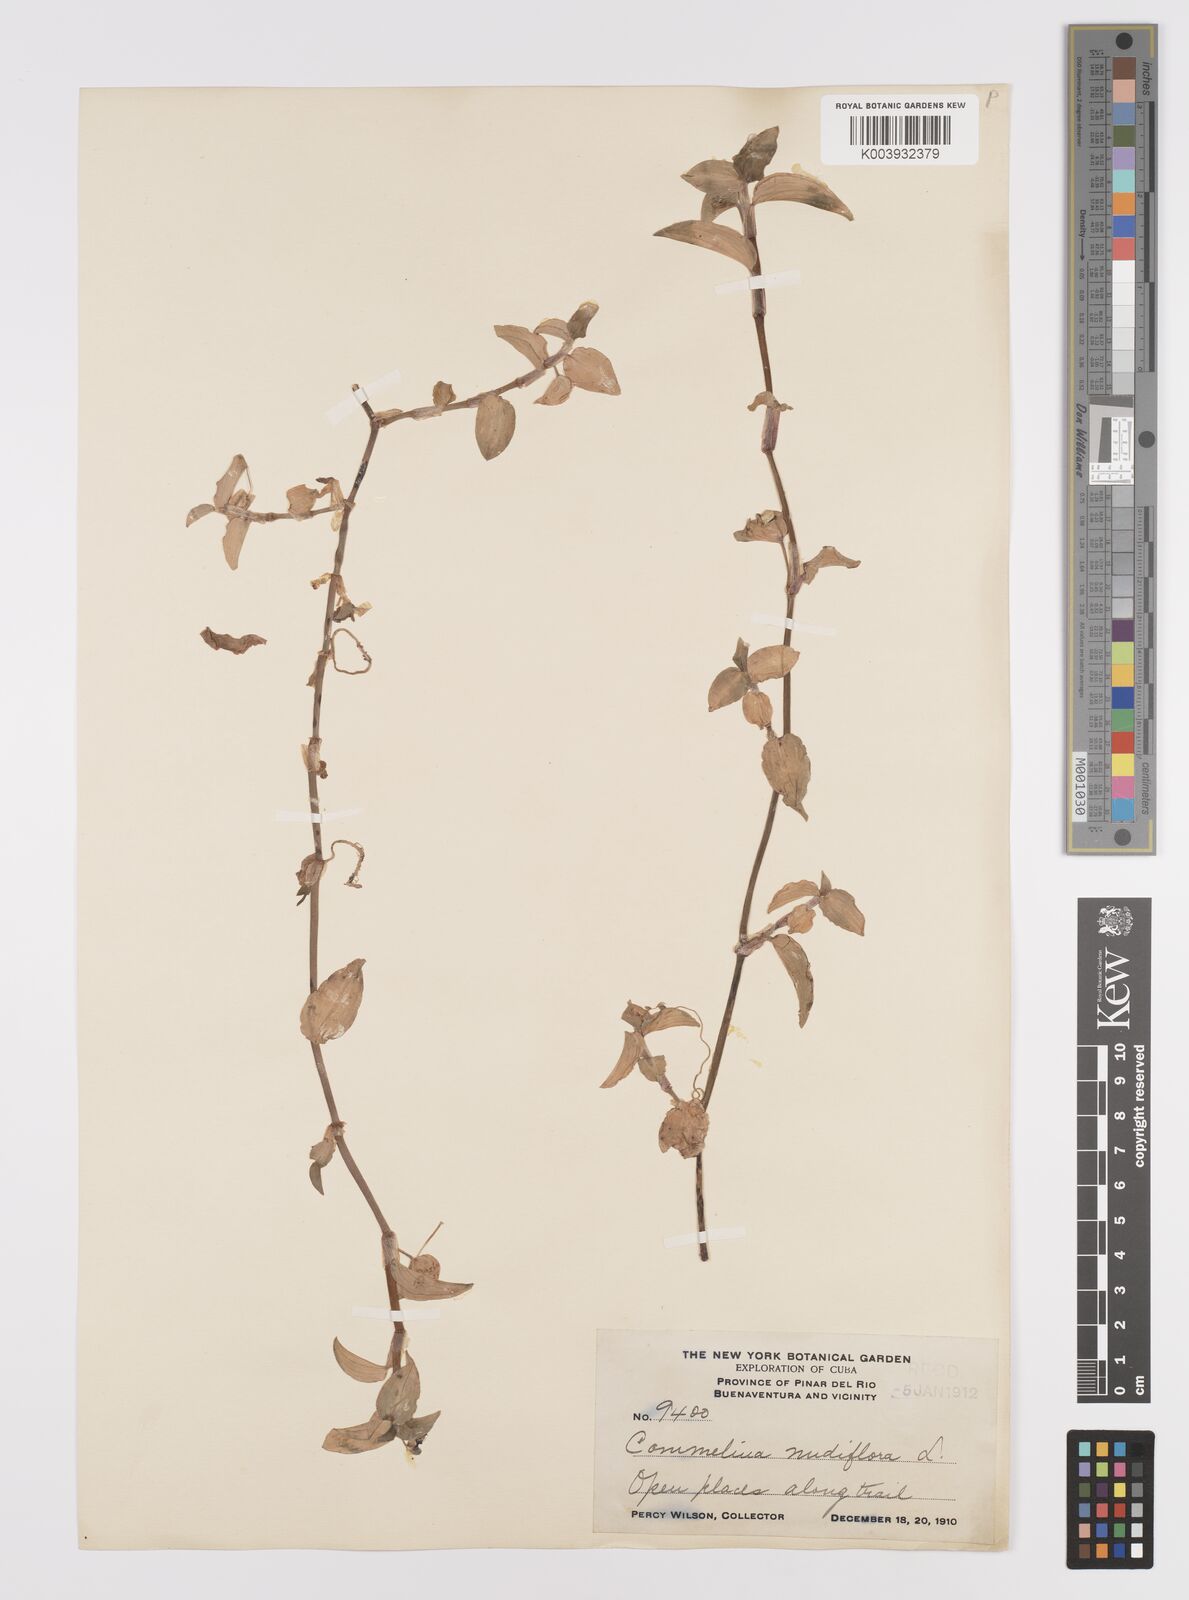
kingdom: Plantae
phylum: Tracheophyta
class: Liliopsida
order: Commelinales
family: Commelinaceae
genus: Commelina
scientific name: Commelina
